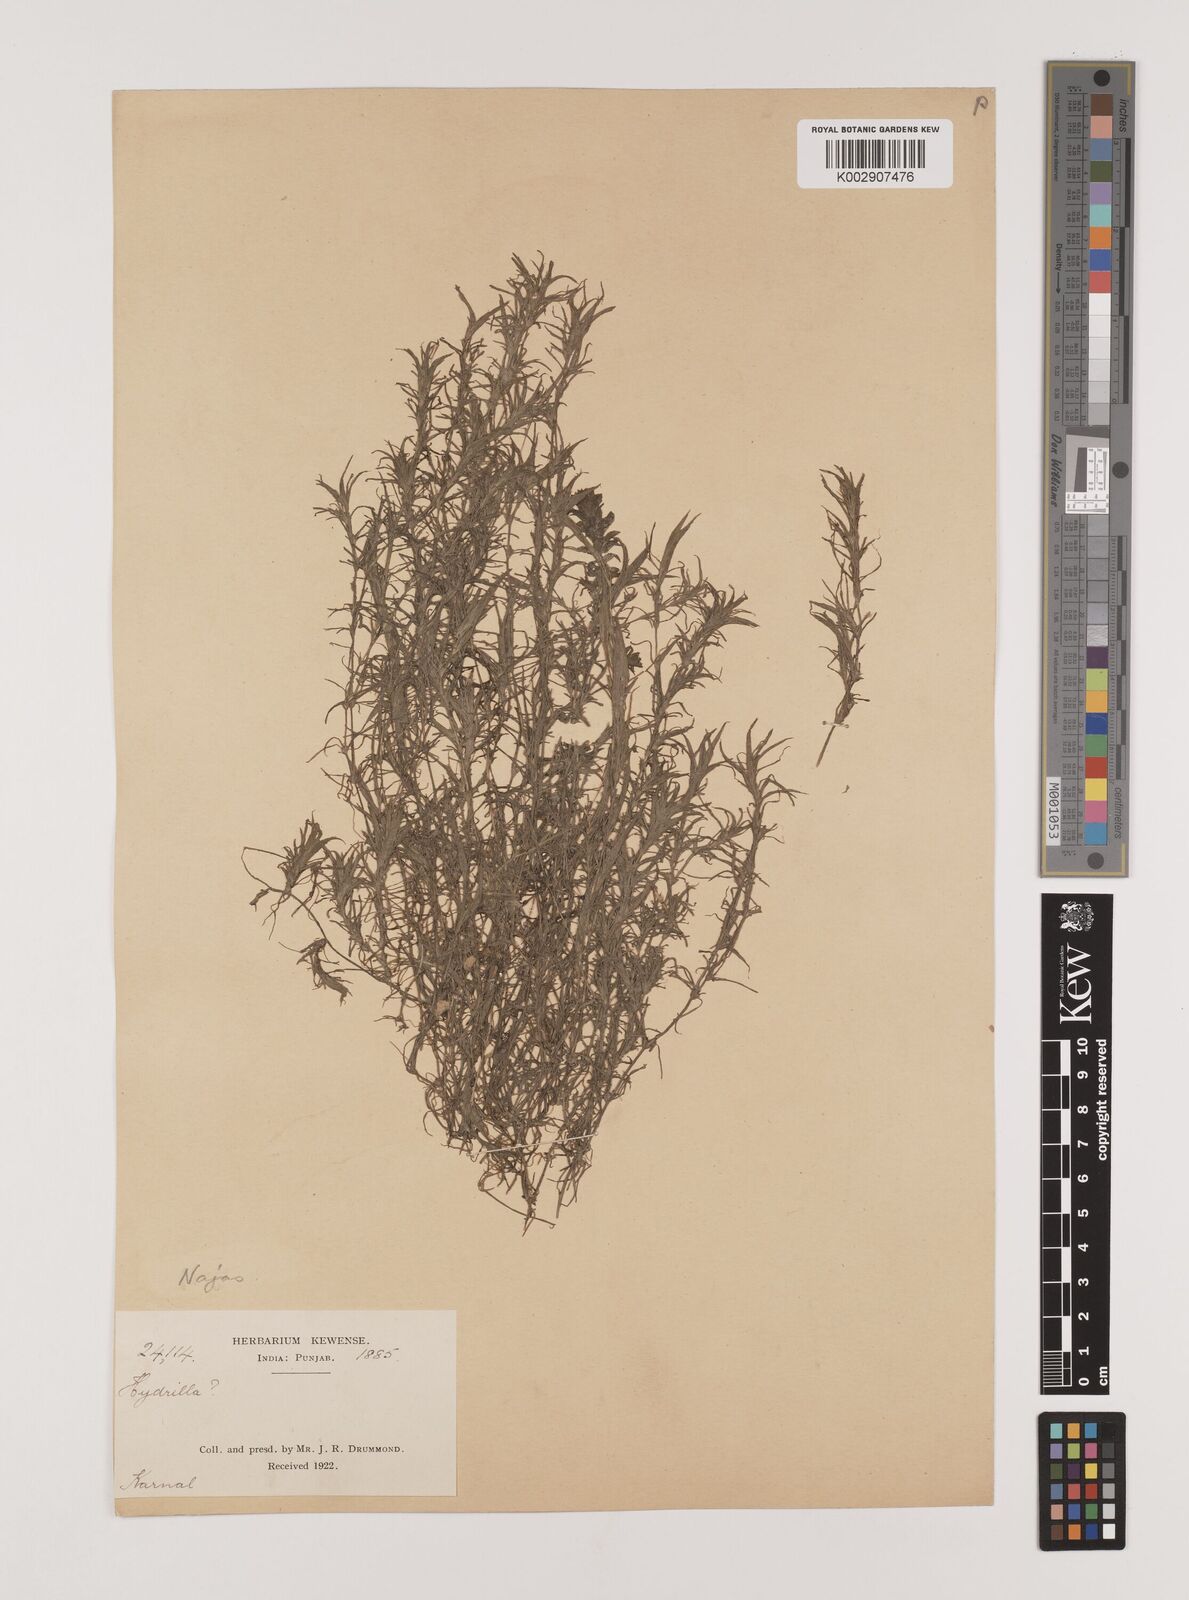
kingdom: Plantae
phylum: Tracheophyta
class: Liliopsida
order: Alismatales
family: Hydrocharitaceae
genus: Najas
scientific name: Najas graminea
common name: Ricefield waternymph
